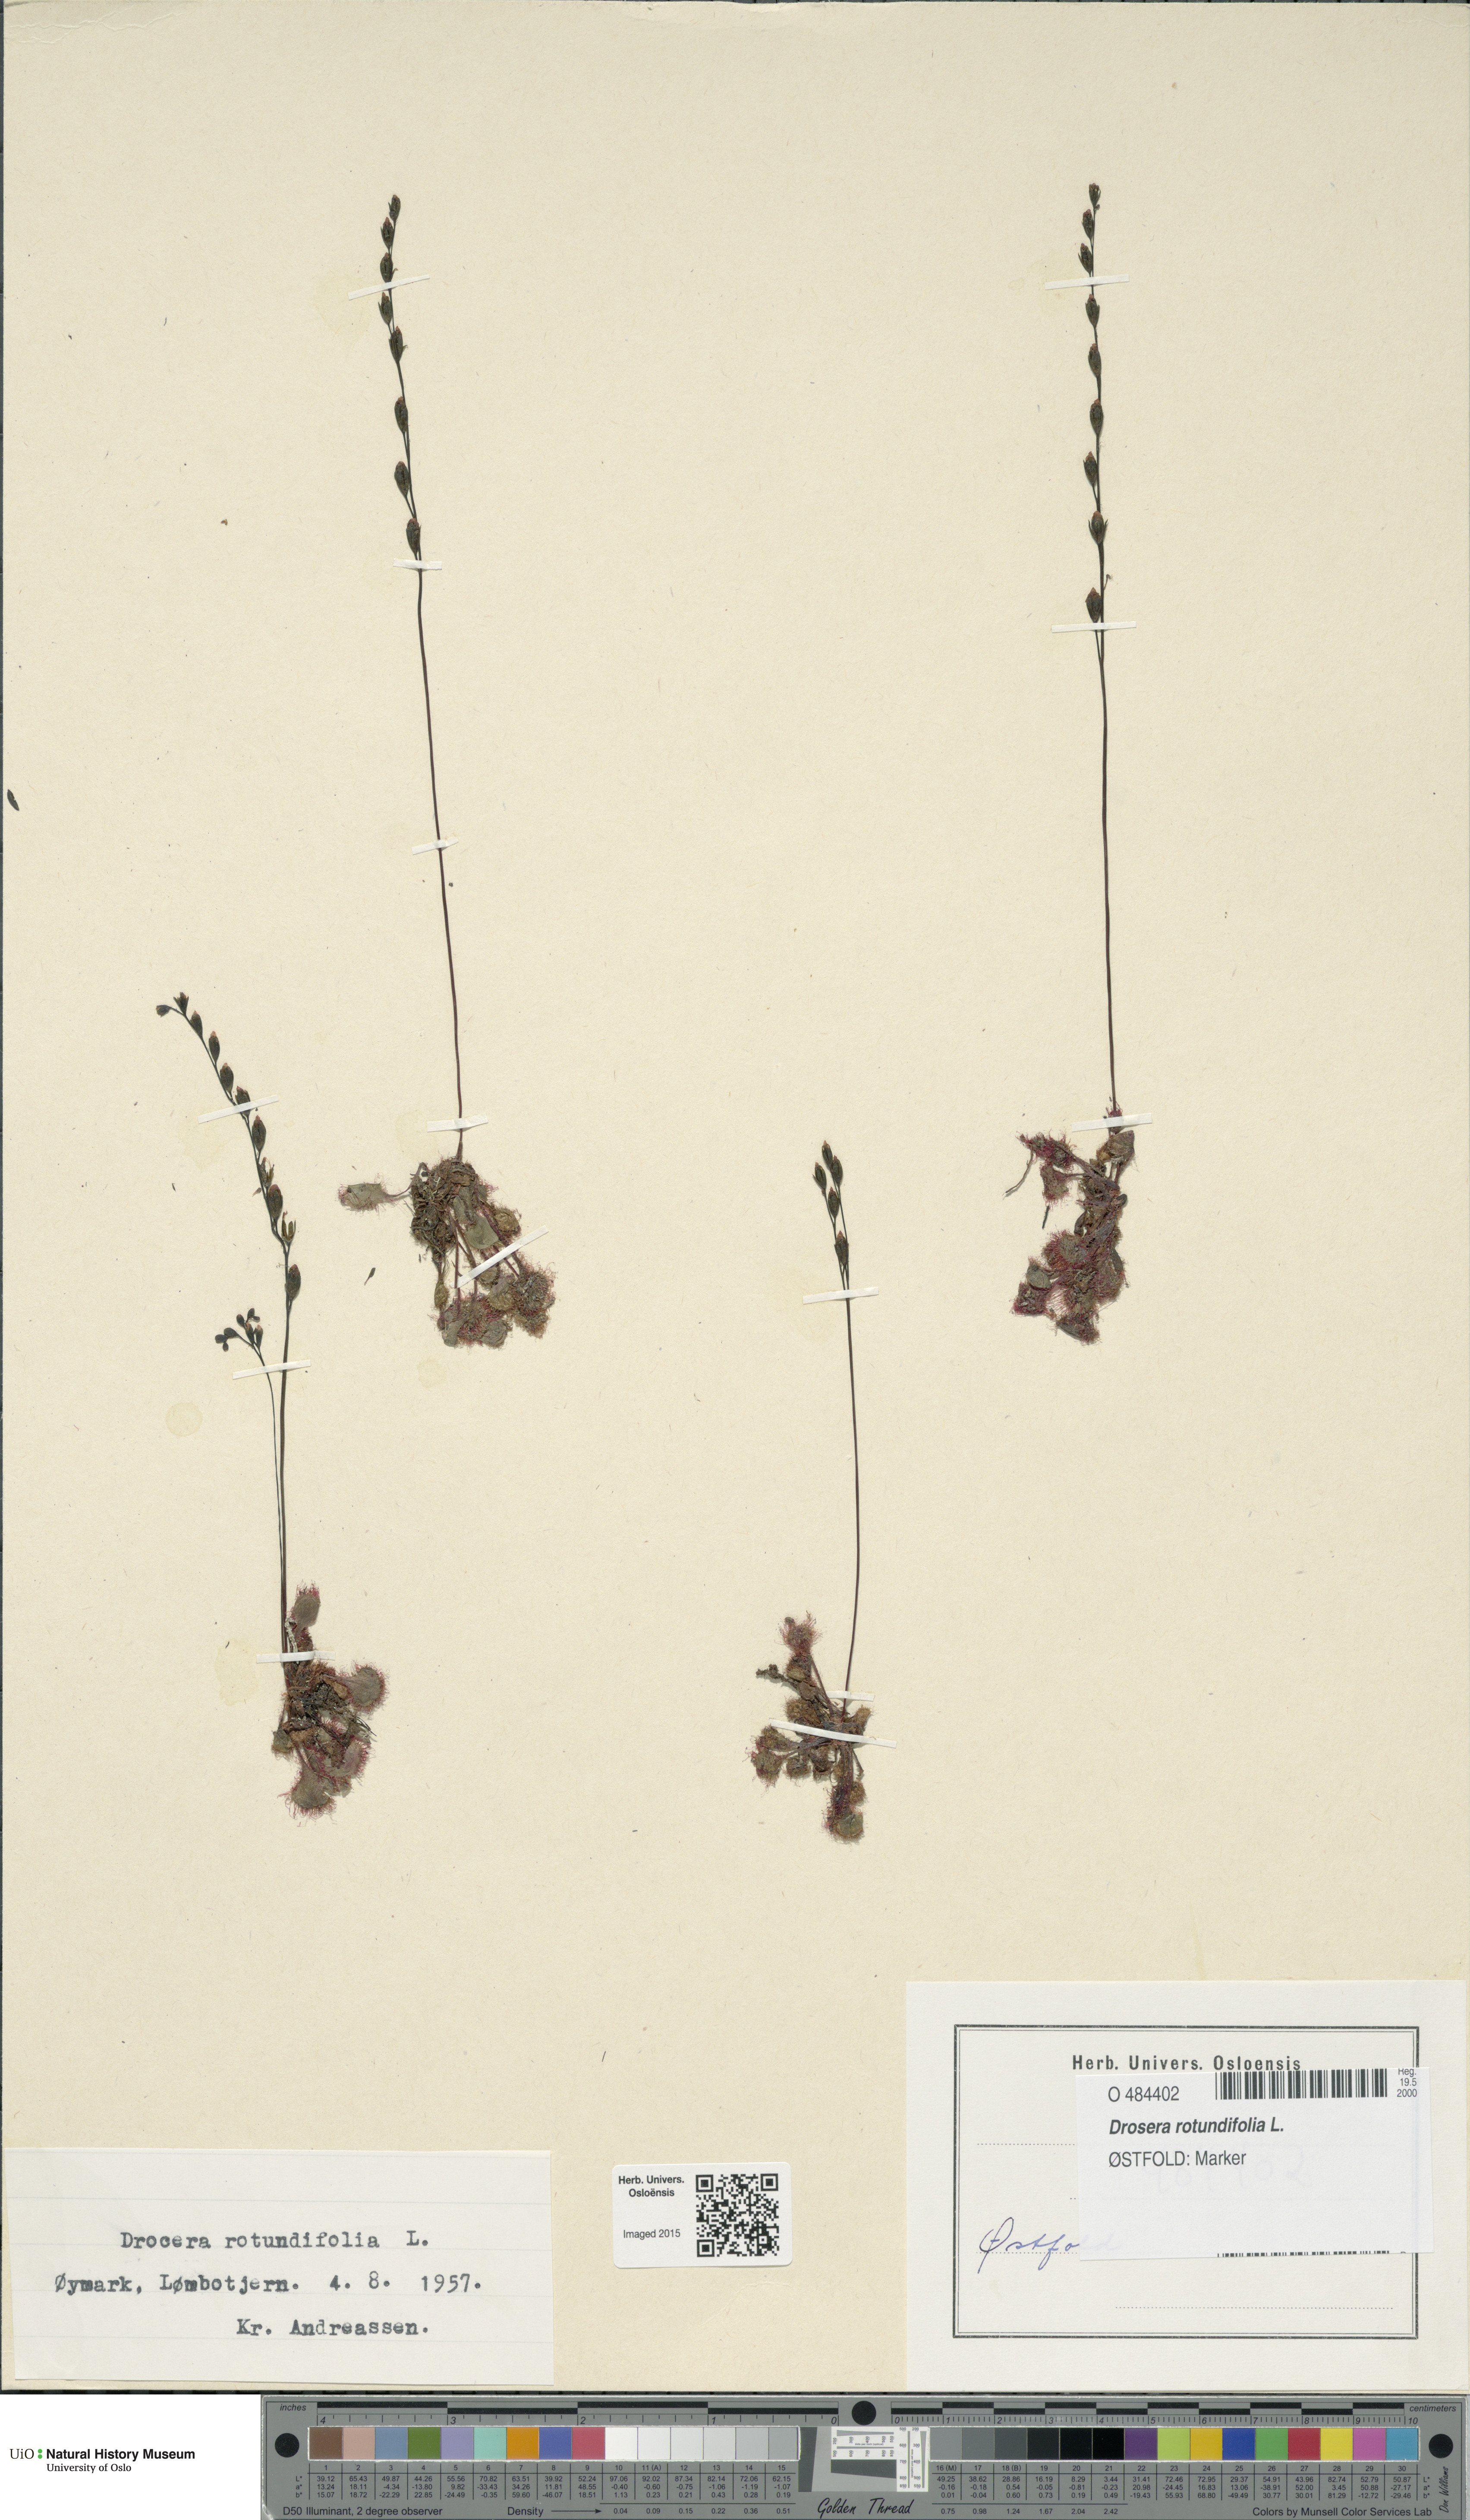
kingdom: Plantae
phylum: Tracheophyta
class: Magnoliopsida
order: Caryophyllales
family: Droseraceae
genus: Drosera
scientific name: Drosera rotundifolia
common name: Round-leaved sundew
